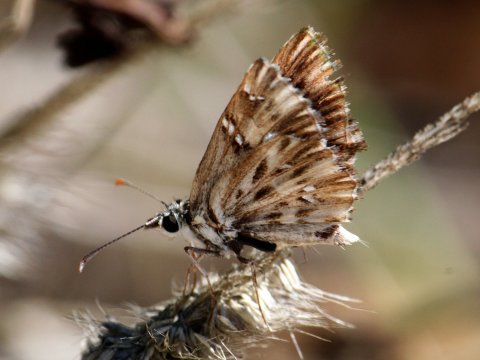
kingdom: Animalia
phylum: Arthropoda
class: Insecta
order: Lepidoptera
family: Hesperiidae
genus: Celotes
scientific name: Celotes nessus
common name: Common Streaky-Skipper
